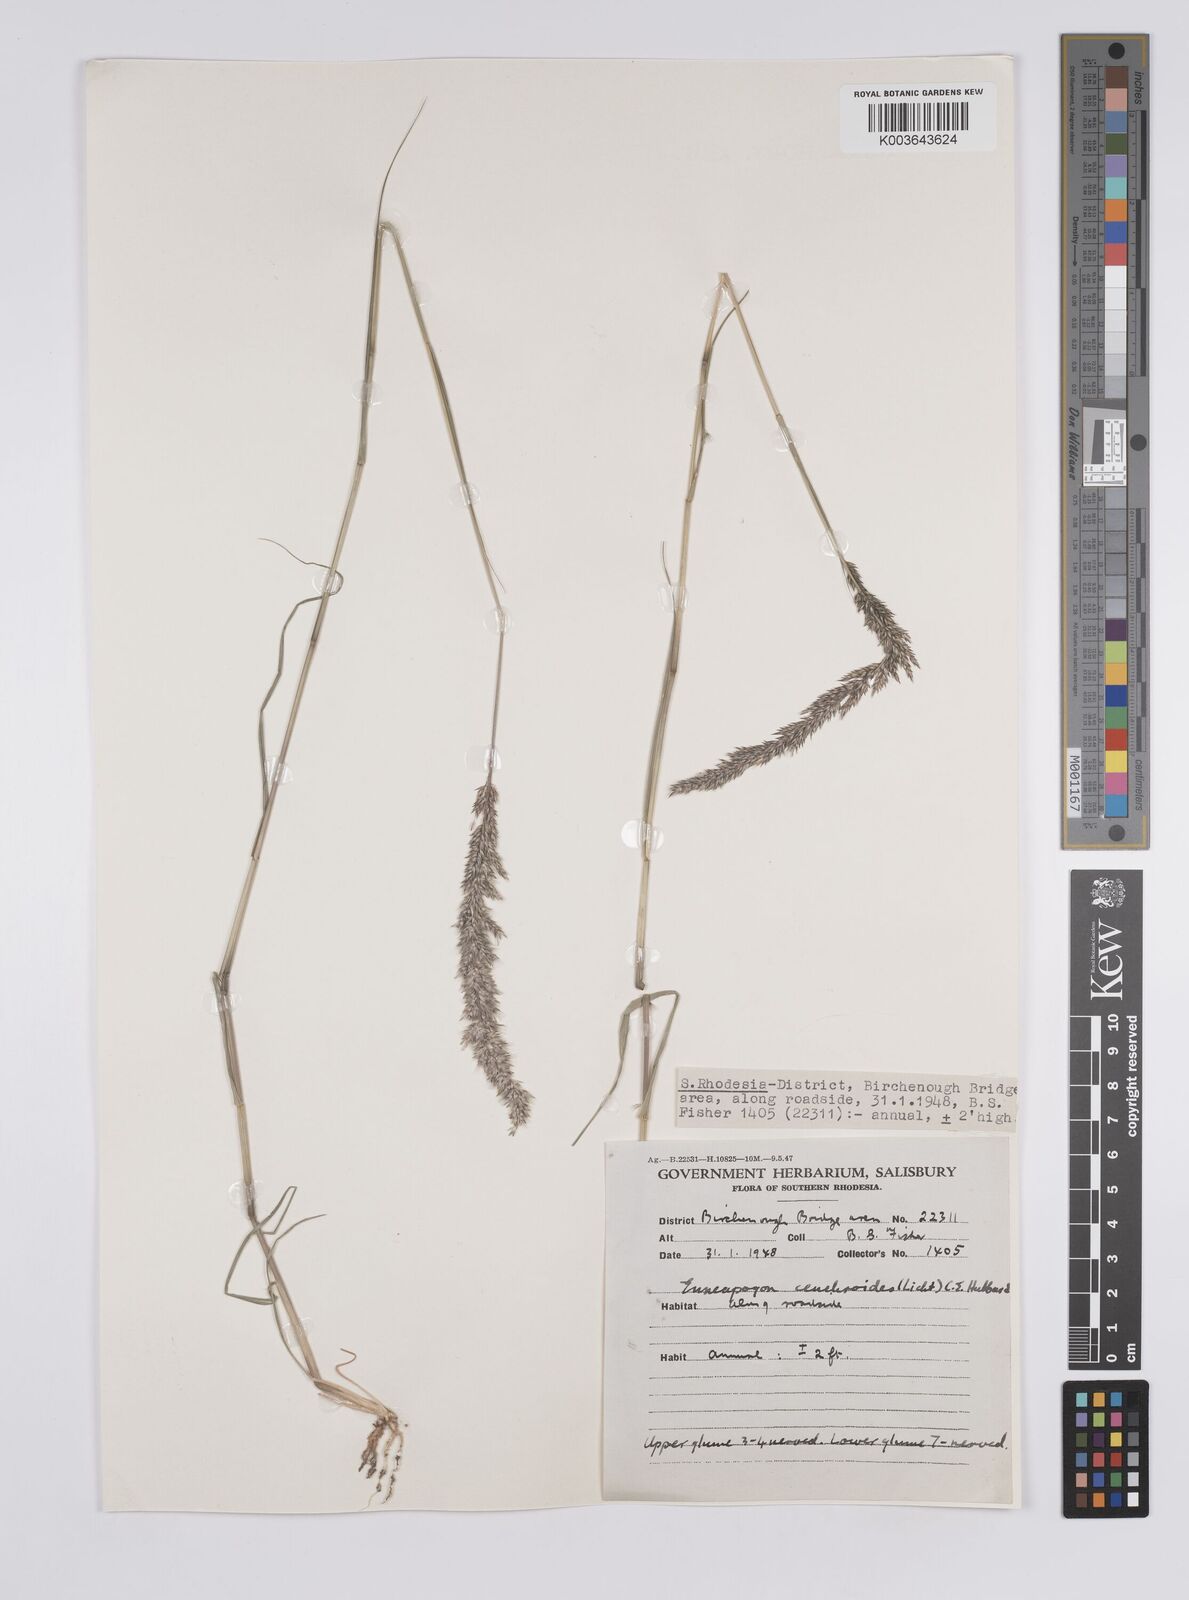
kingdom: Plantae
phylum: Tracheophyta
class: Liliopsida
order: Poales
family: Poaceae
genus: Enneapogon
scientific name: Enneapogon cenchroides
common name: Soft feather pappusgrass
